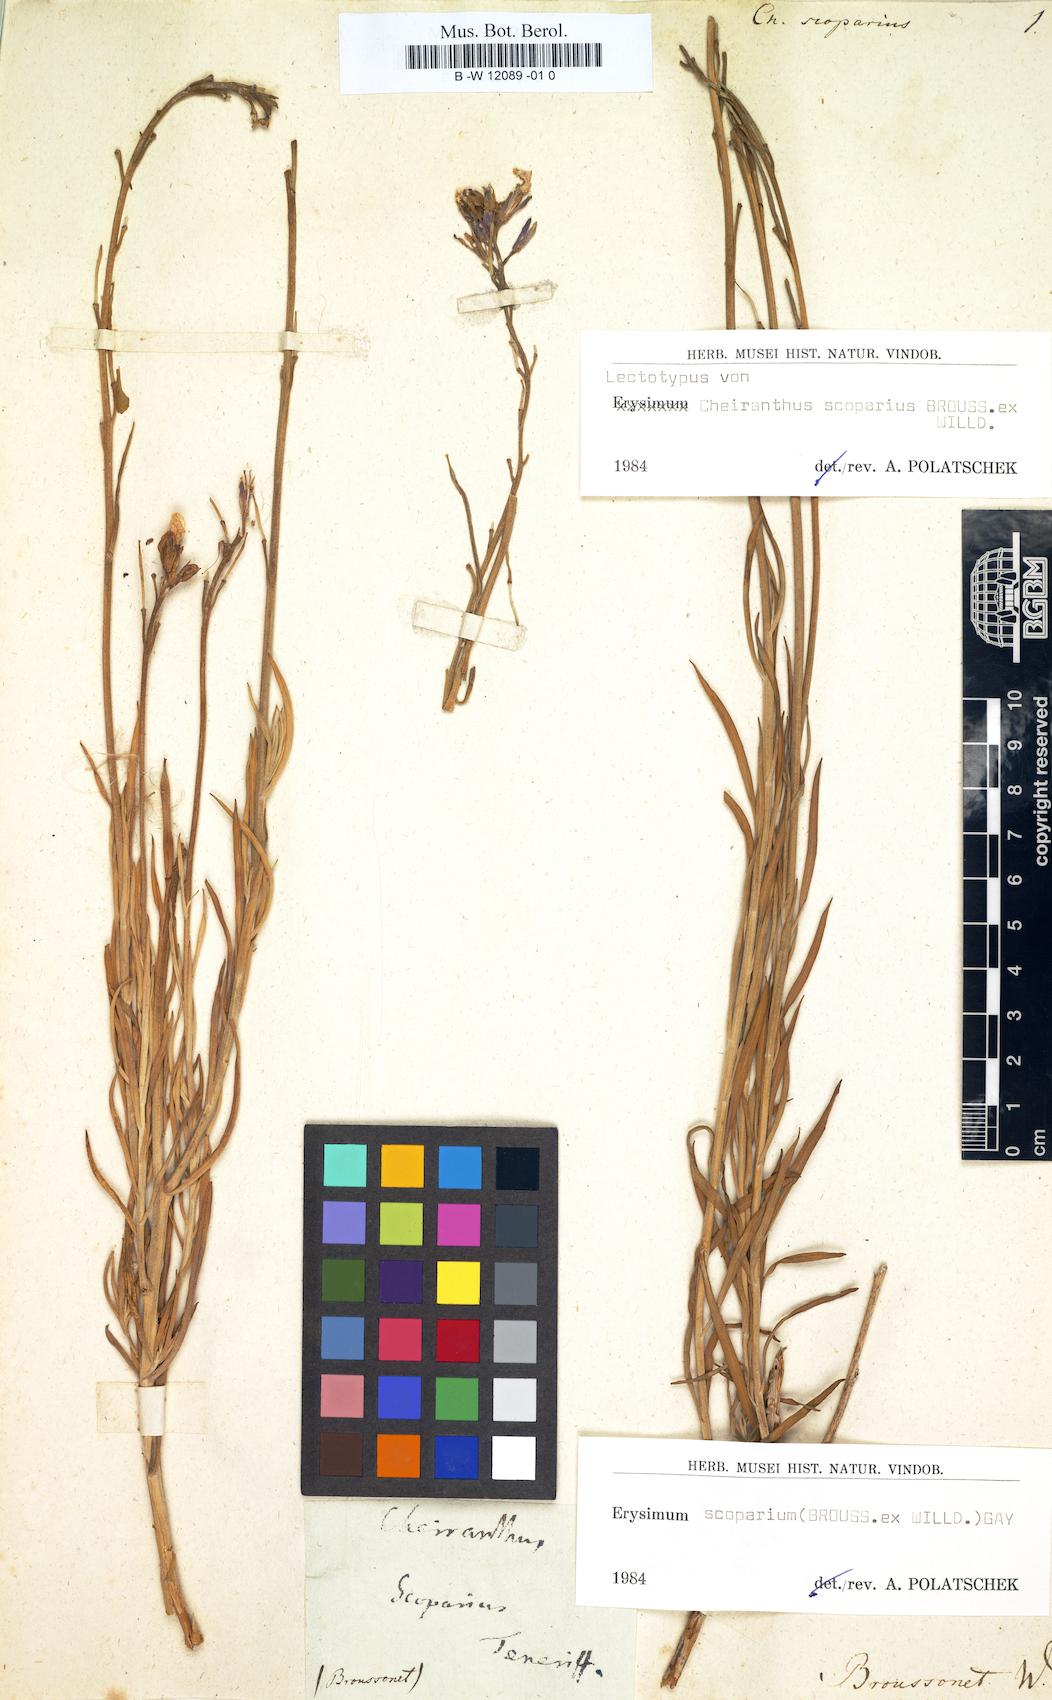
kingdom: Plantae
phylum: Tracheophyta
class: Magnoliopsida
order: Brassicales
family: Brassicaceae
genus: Erysimum
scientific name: Erysimum scoparium
